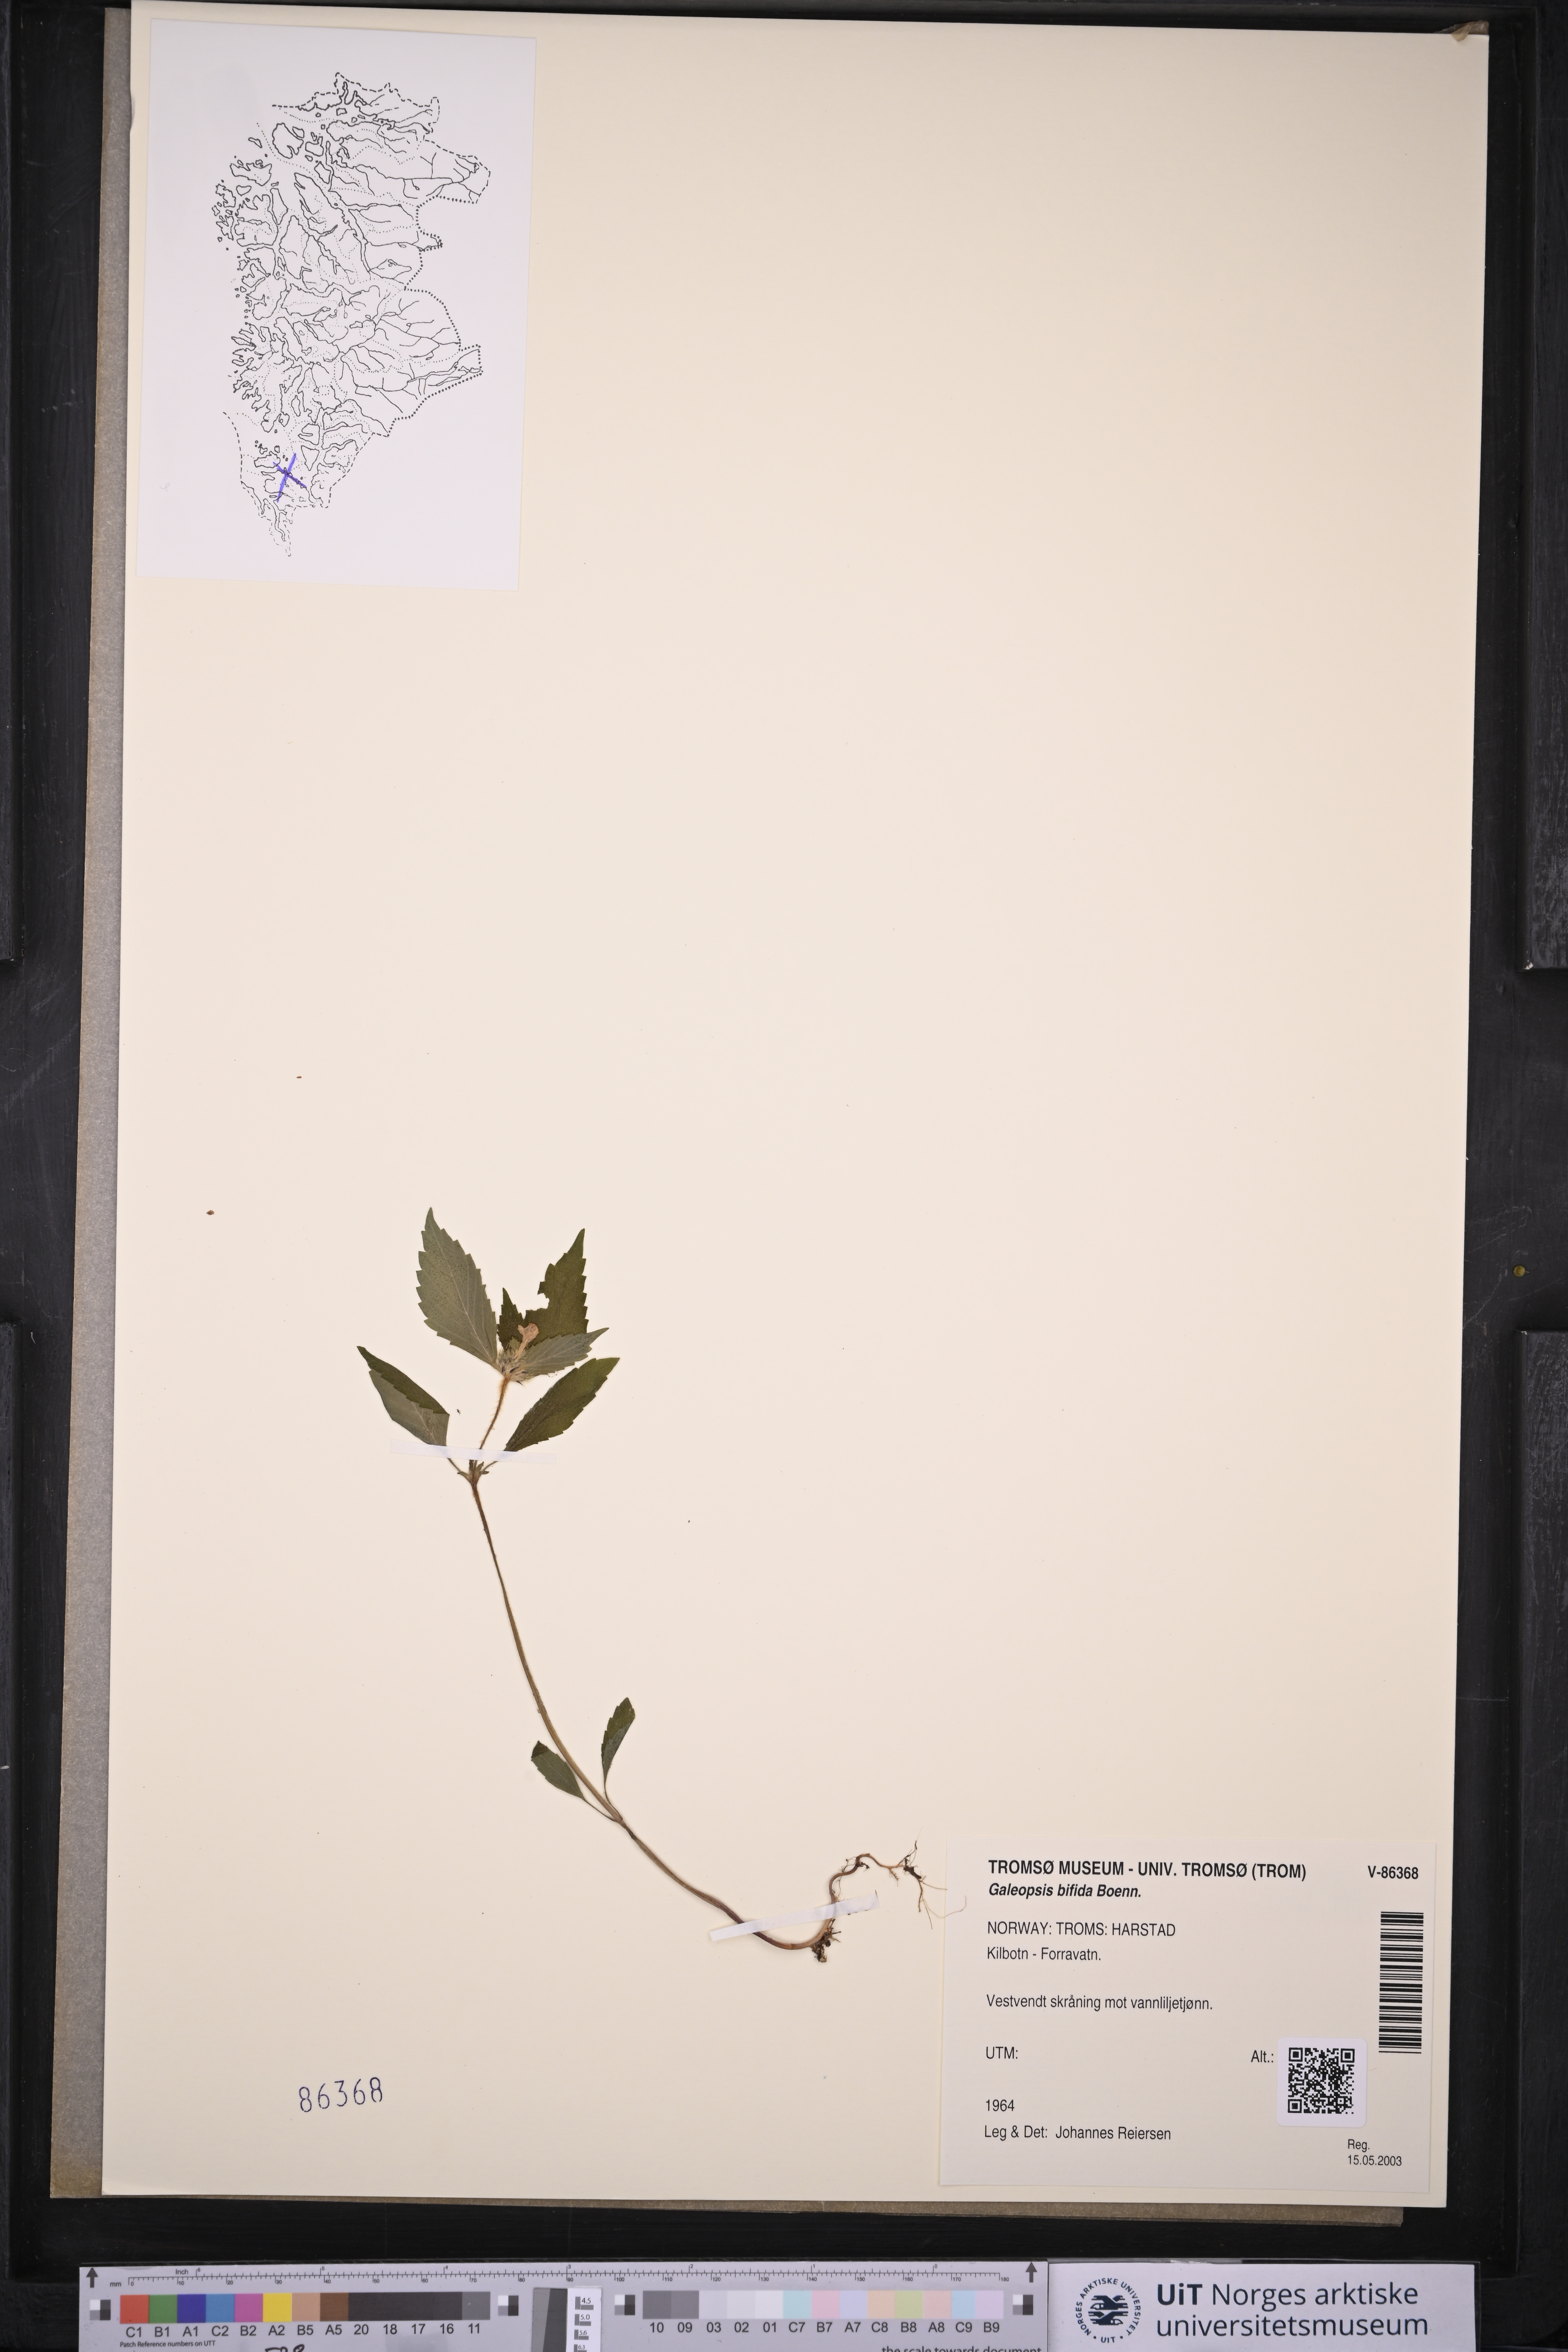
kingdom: Plantae
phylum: Tracheophyta
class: Magnoliopsida
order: Lamiales
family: Lamiaceae
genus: Galeopsis
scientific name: Galeopsis bifida
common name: Bifid hemp-nettle
